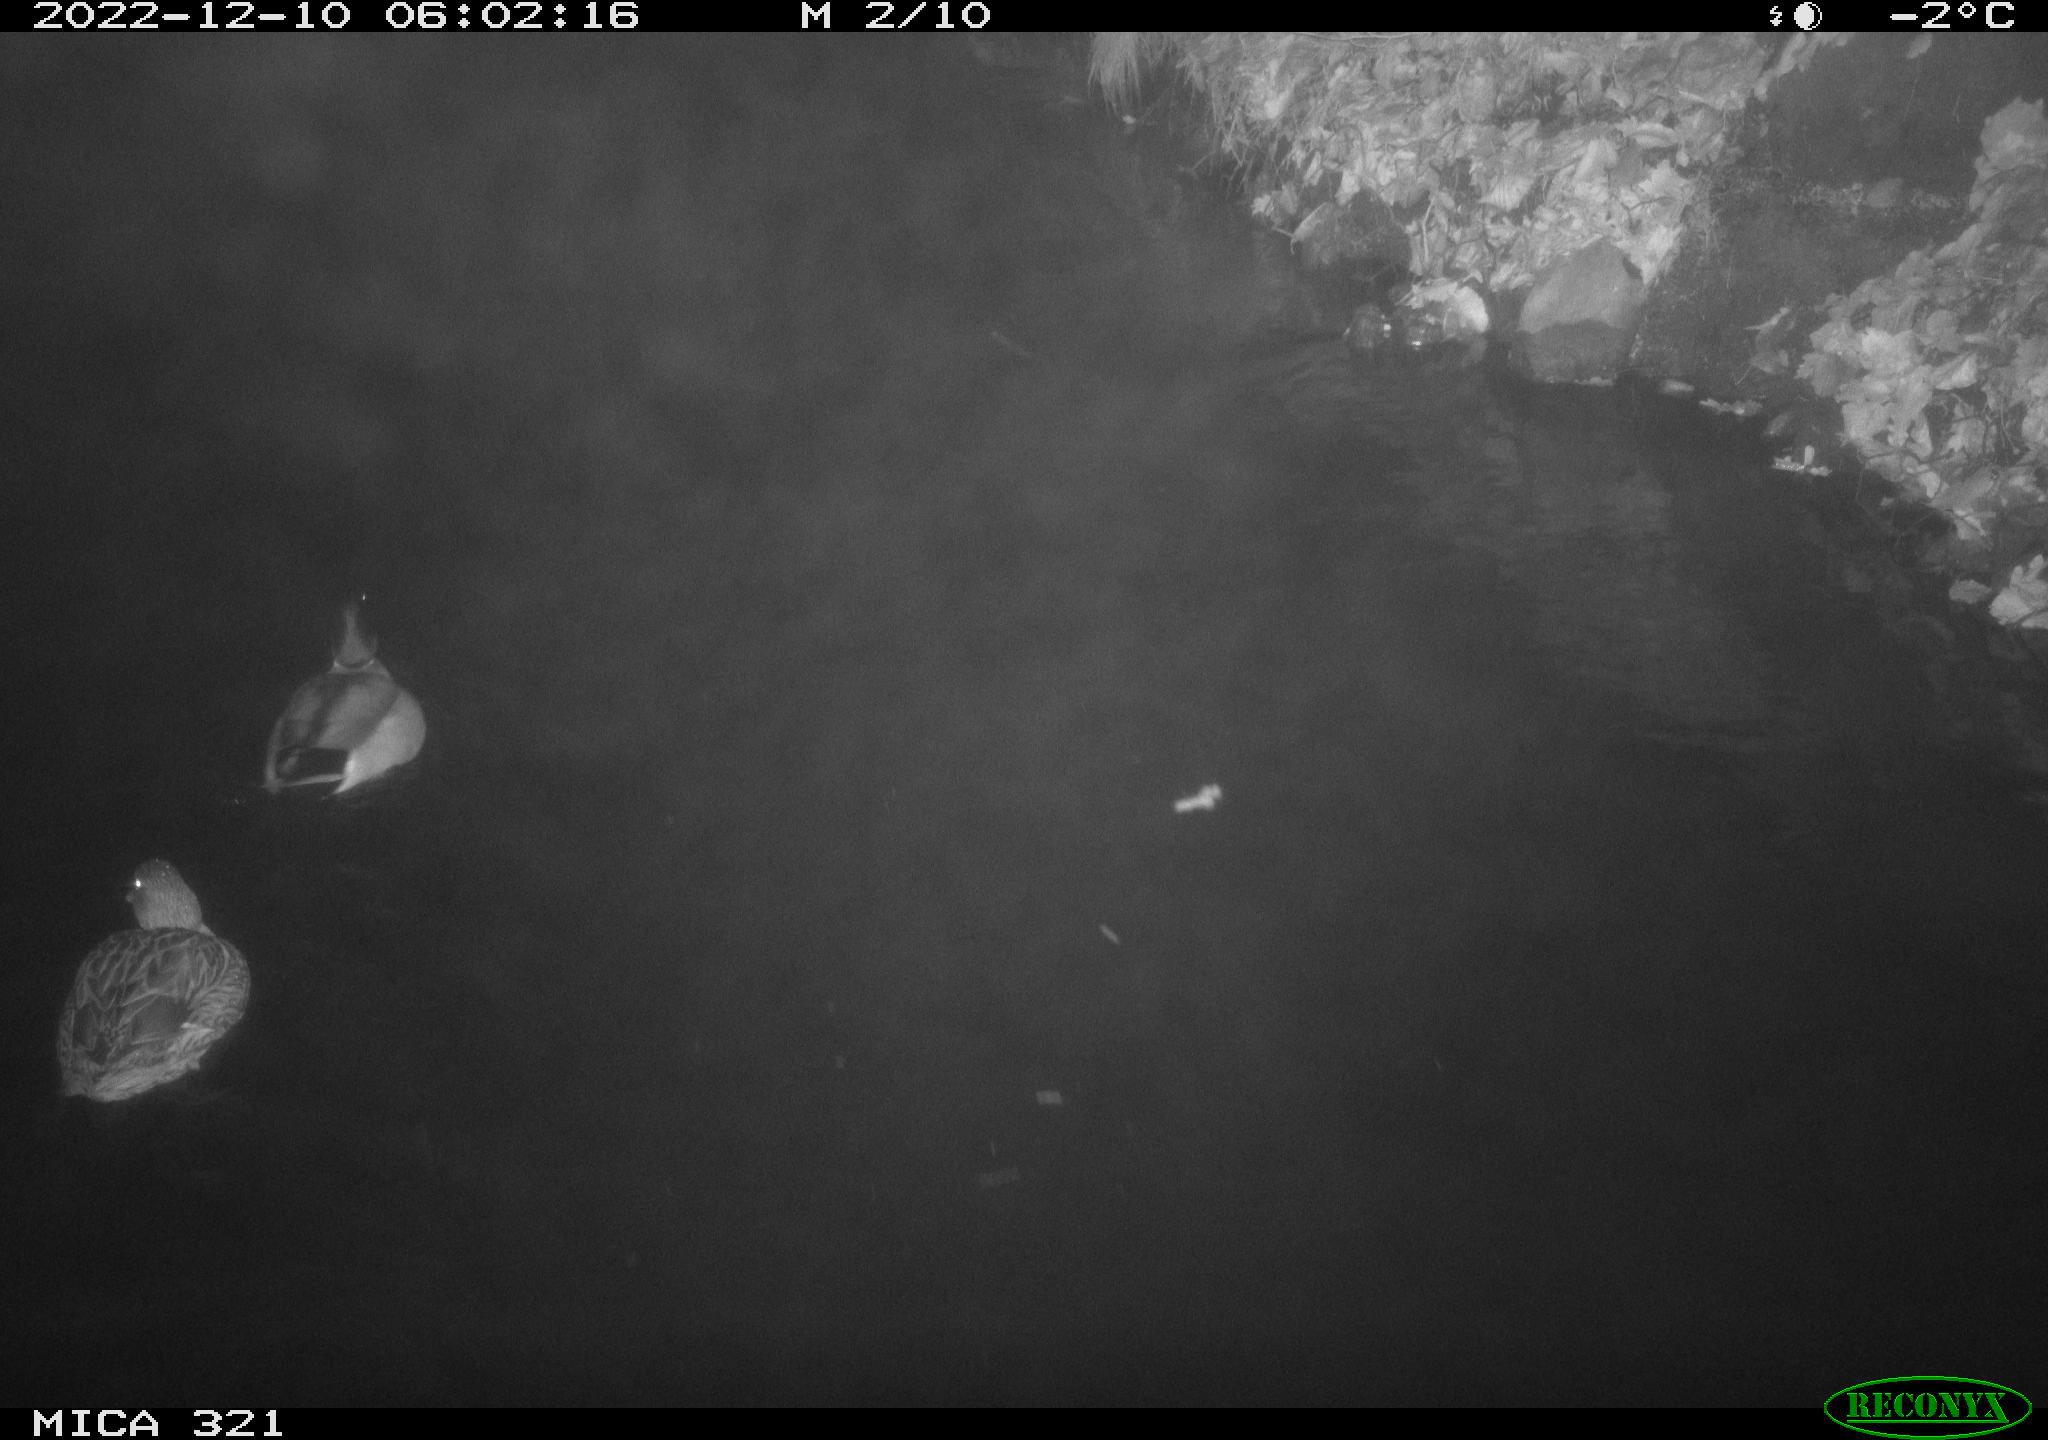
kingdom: Animalia
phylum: Chordata
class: Aves
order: Anseriformes
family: Anatidae
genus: Anas
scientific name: Anas
